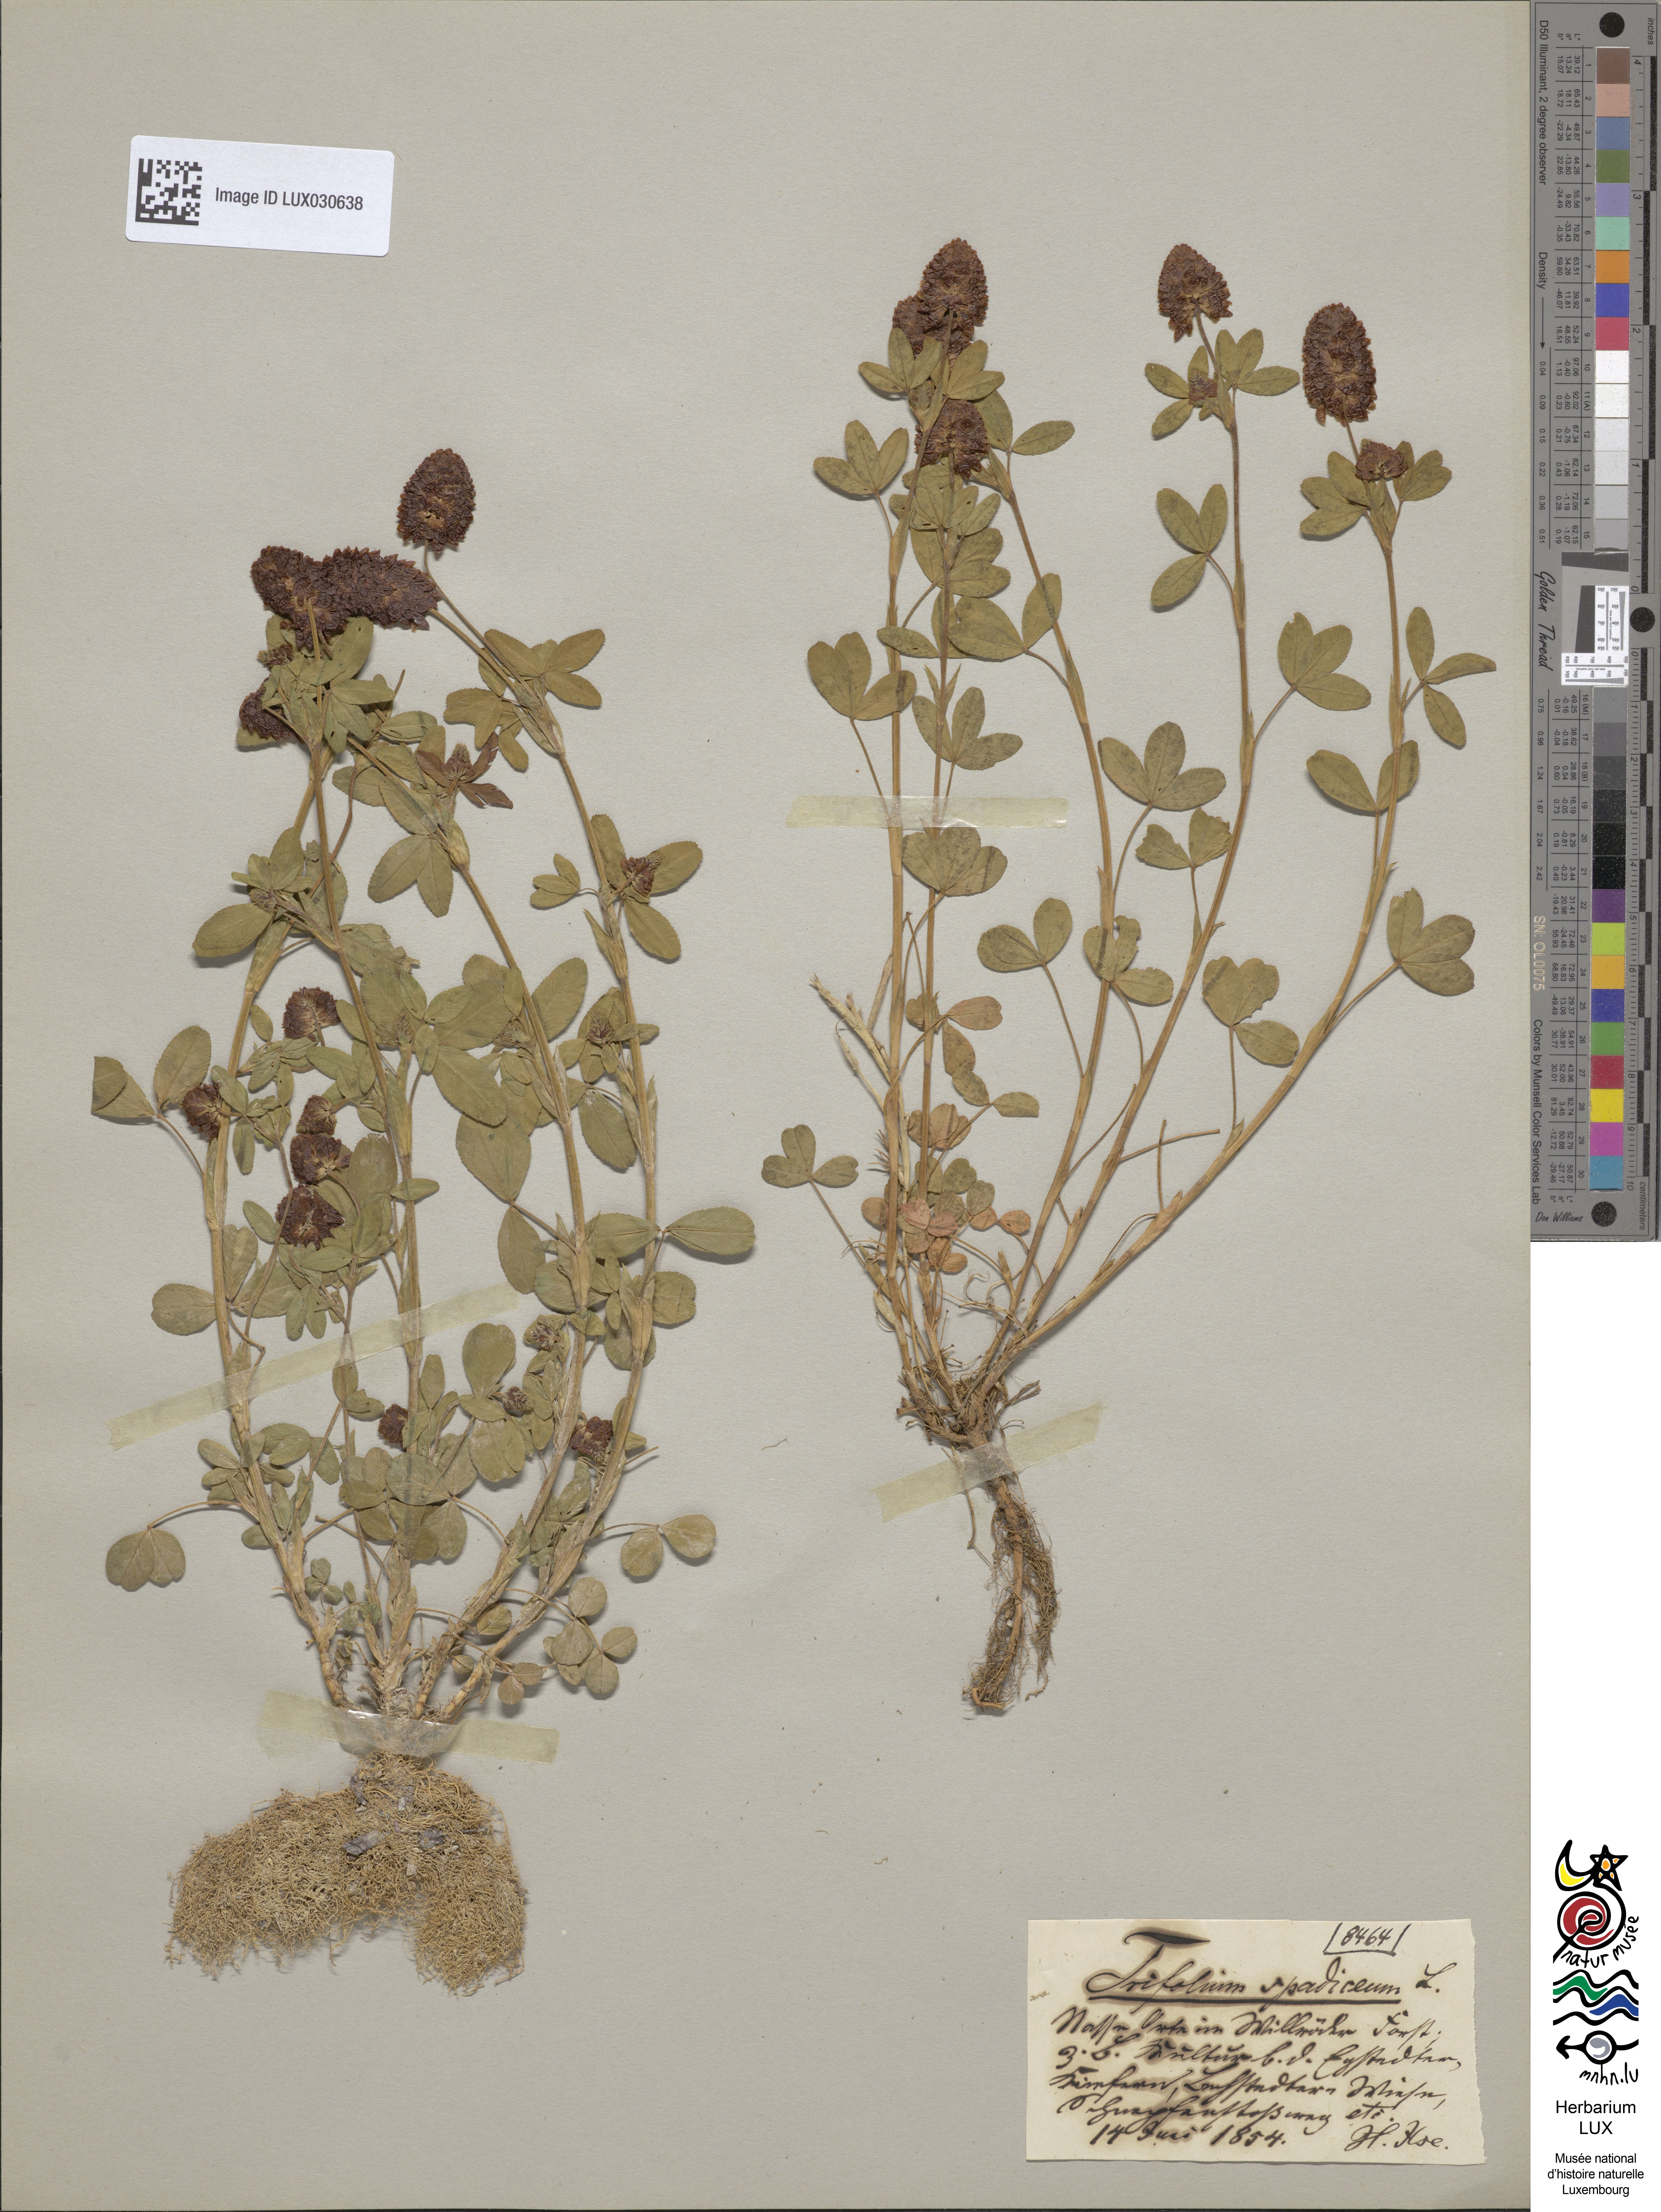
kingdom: Plantae
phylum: Tracheophyta
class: Magnoliopsida
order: Fabales
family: Fabaceae
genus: Trifolium
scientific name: Trifolium spadiceum
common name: Brown moor clover
